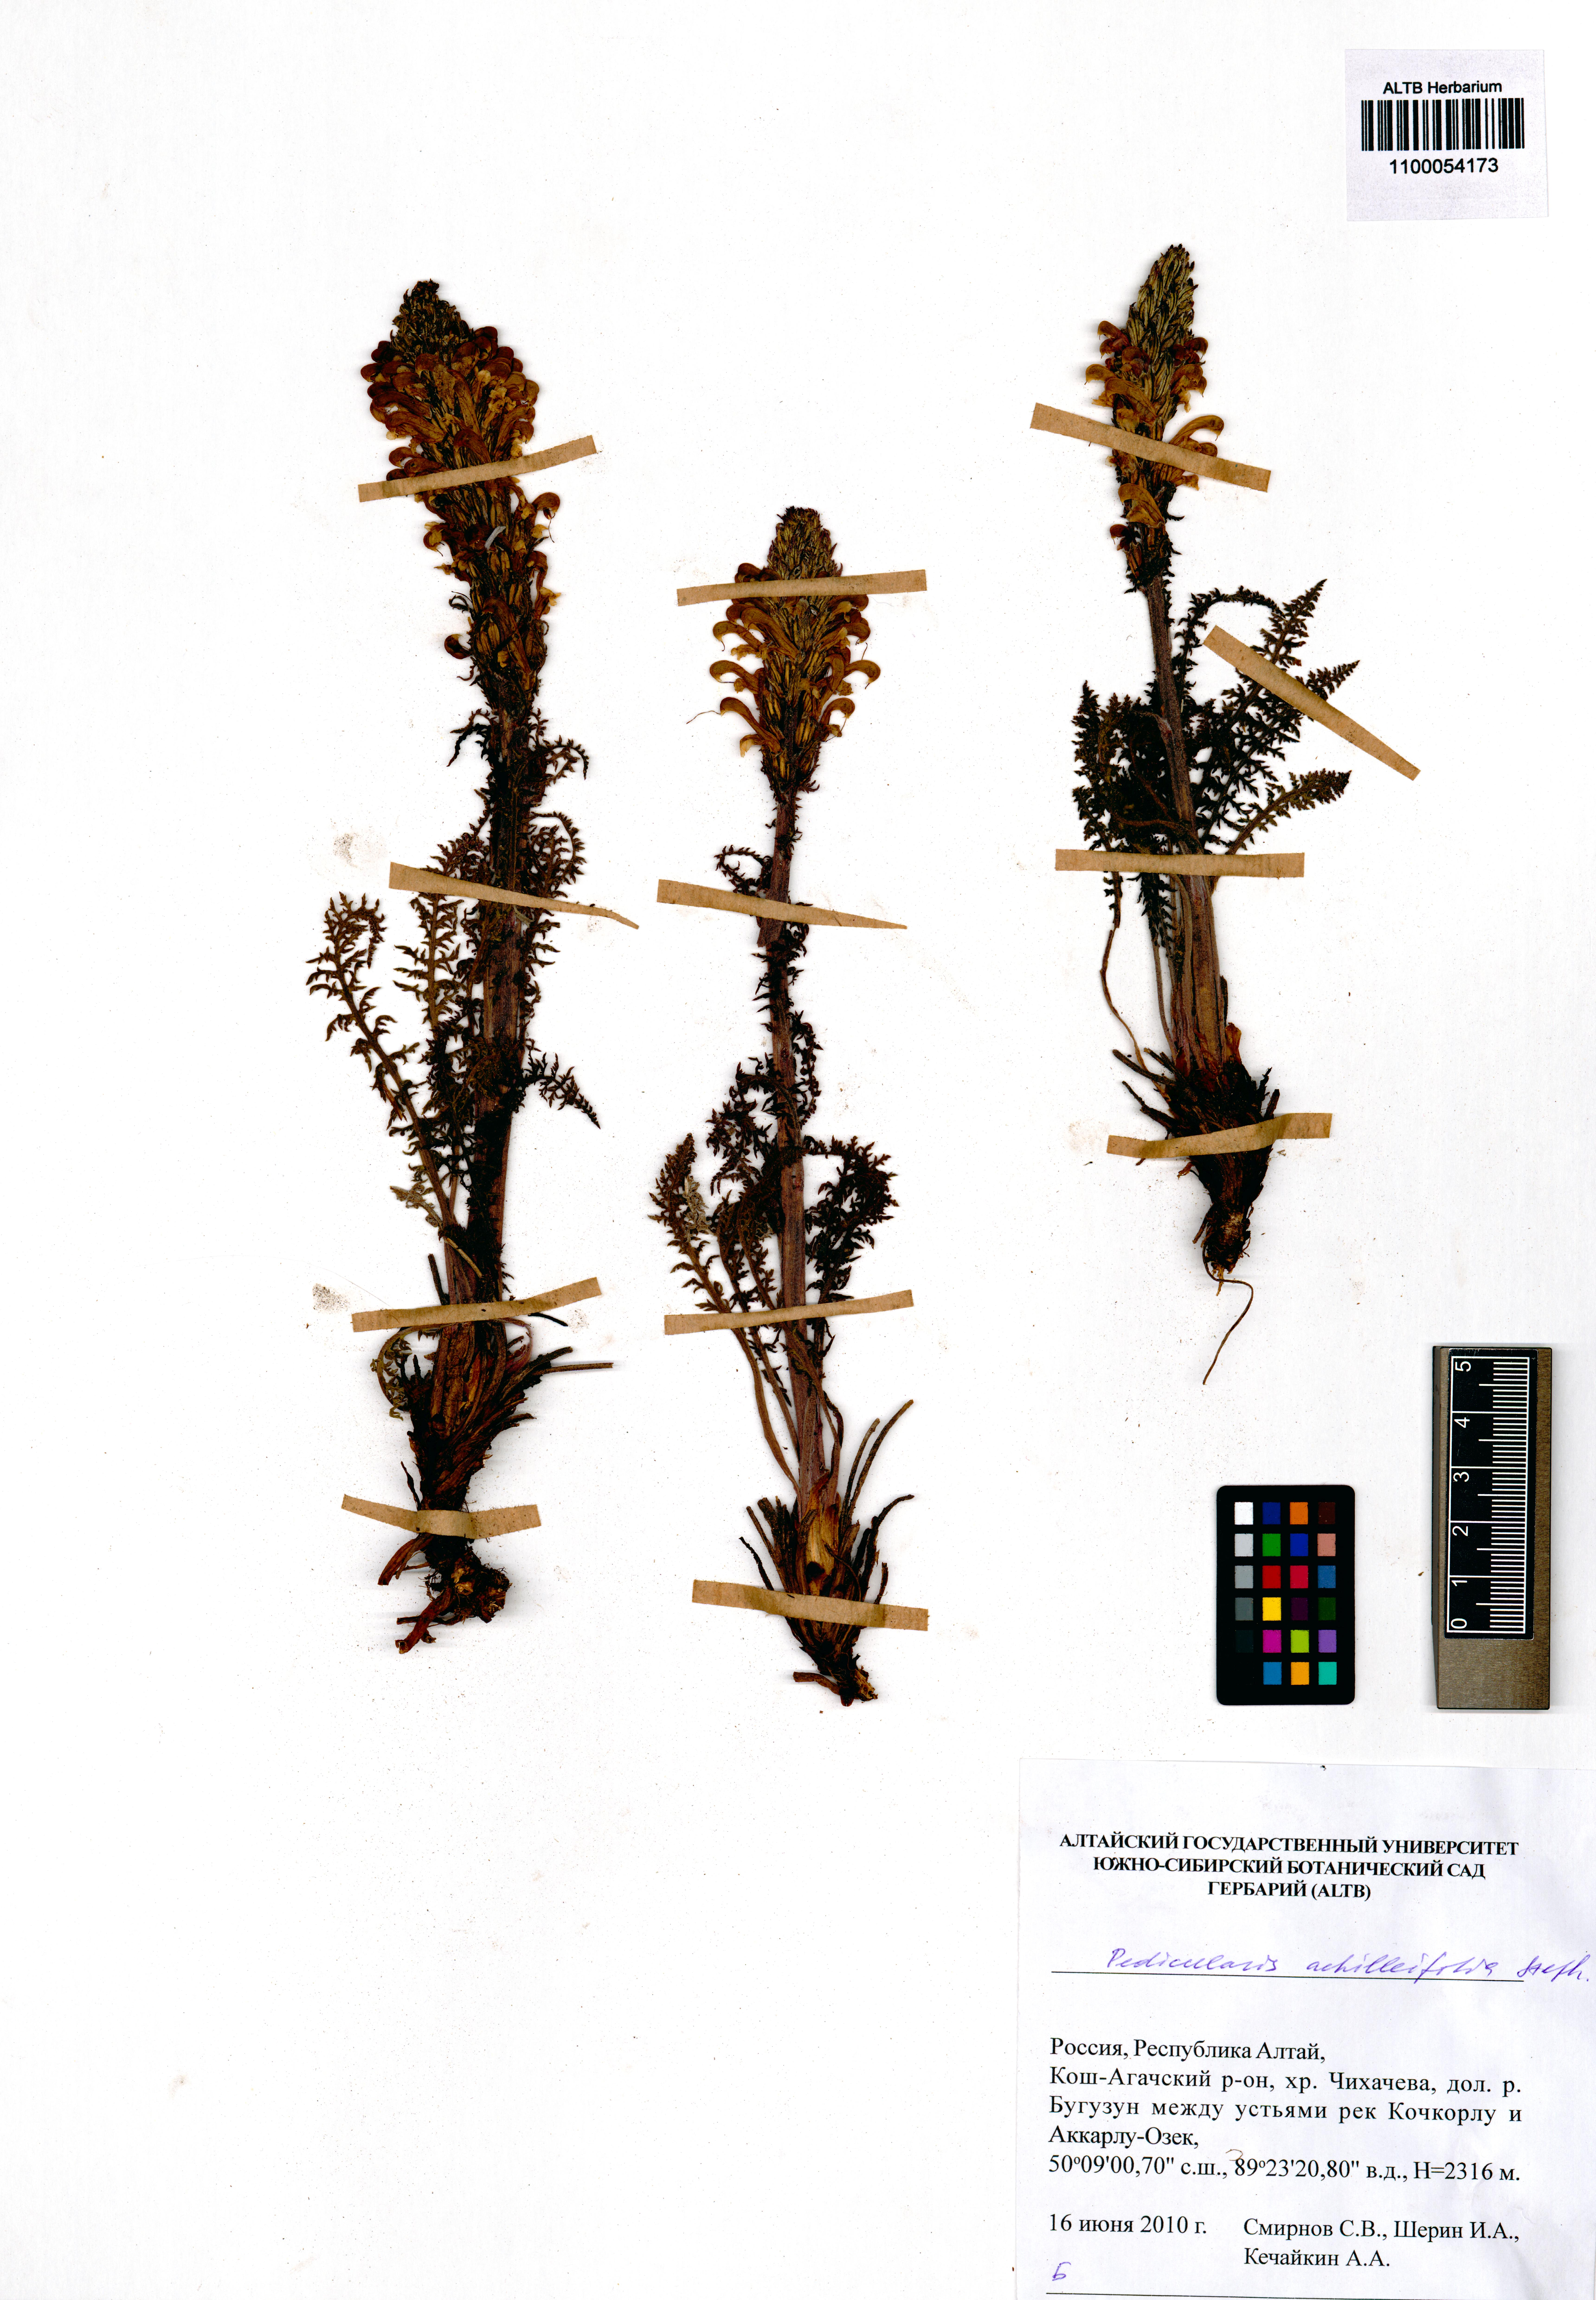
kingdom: Plantae
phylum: Tracheophyta
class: Magnoliopsida
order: Lamiales
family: Orobanchaceae
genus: Pedicularis
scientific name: Pedicularis achilleifolia
